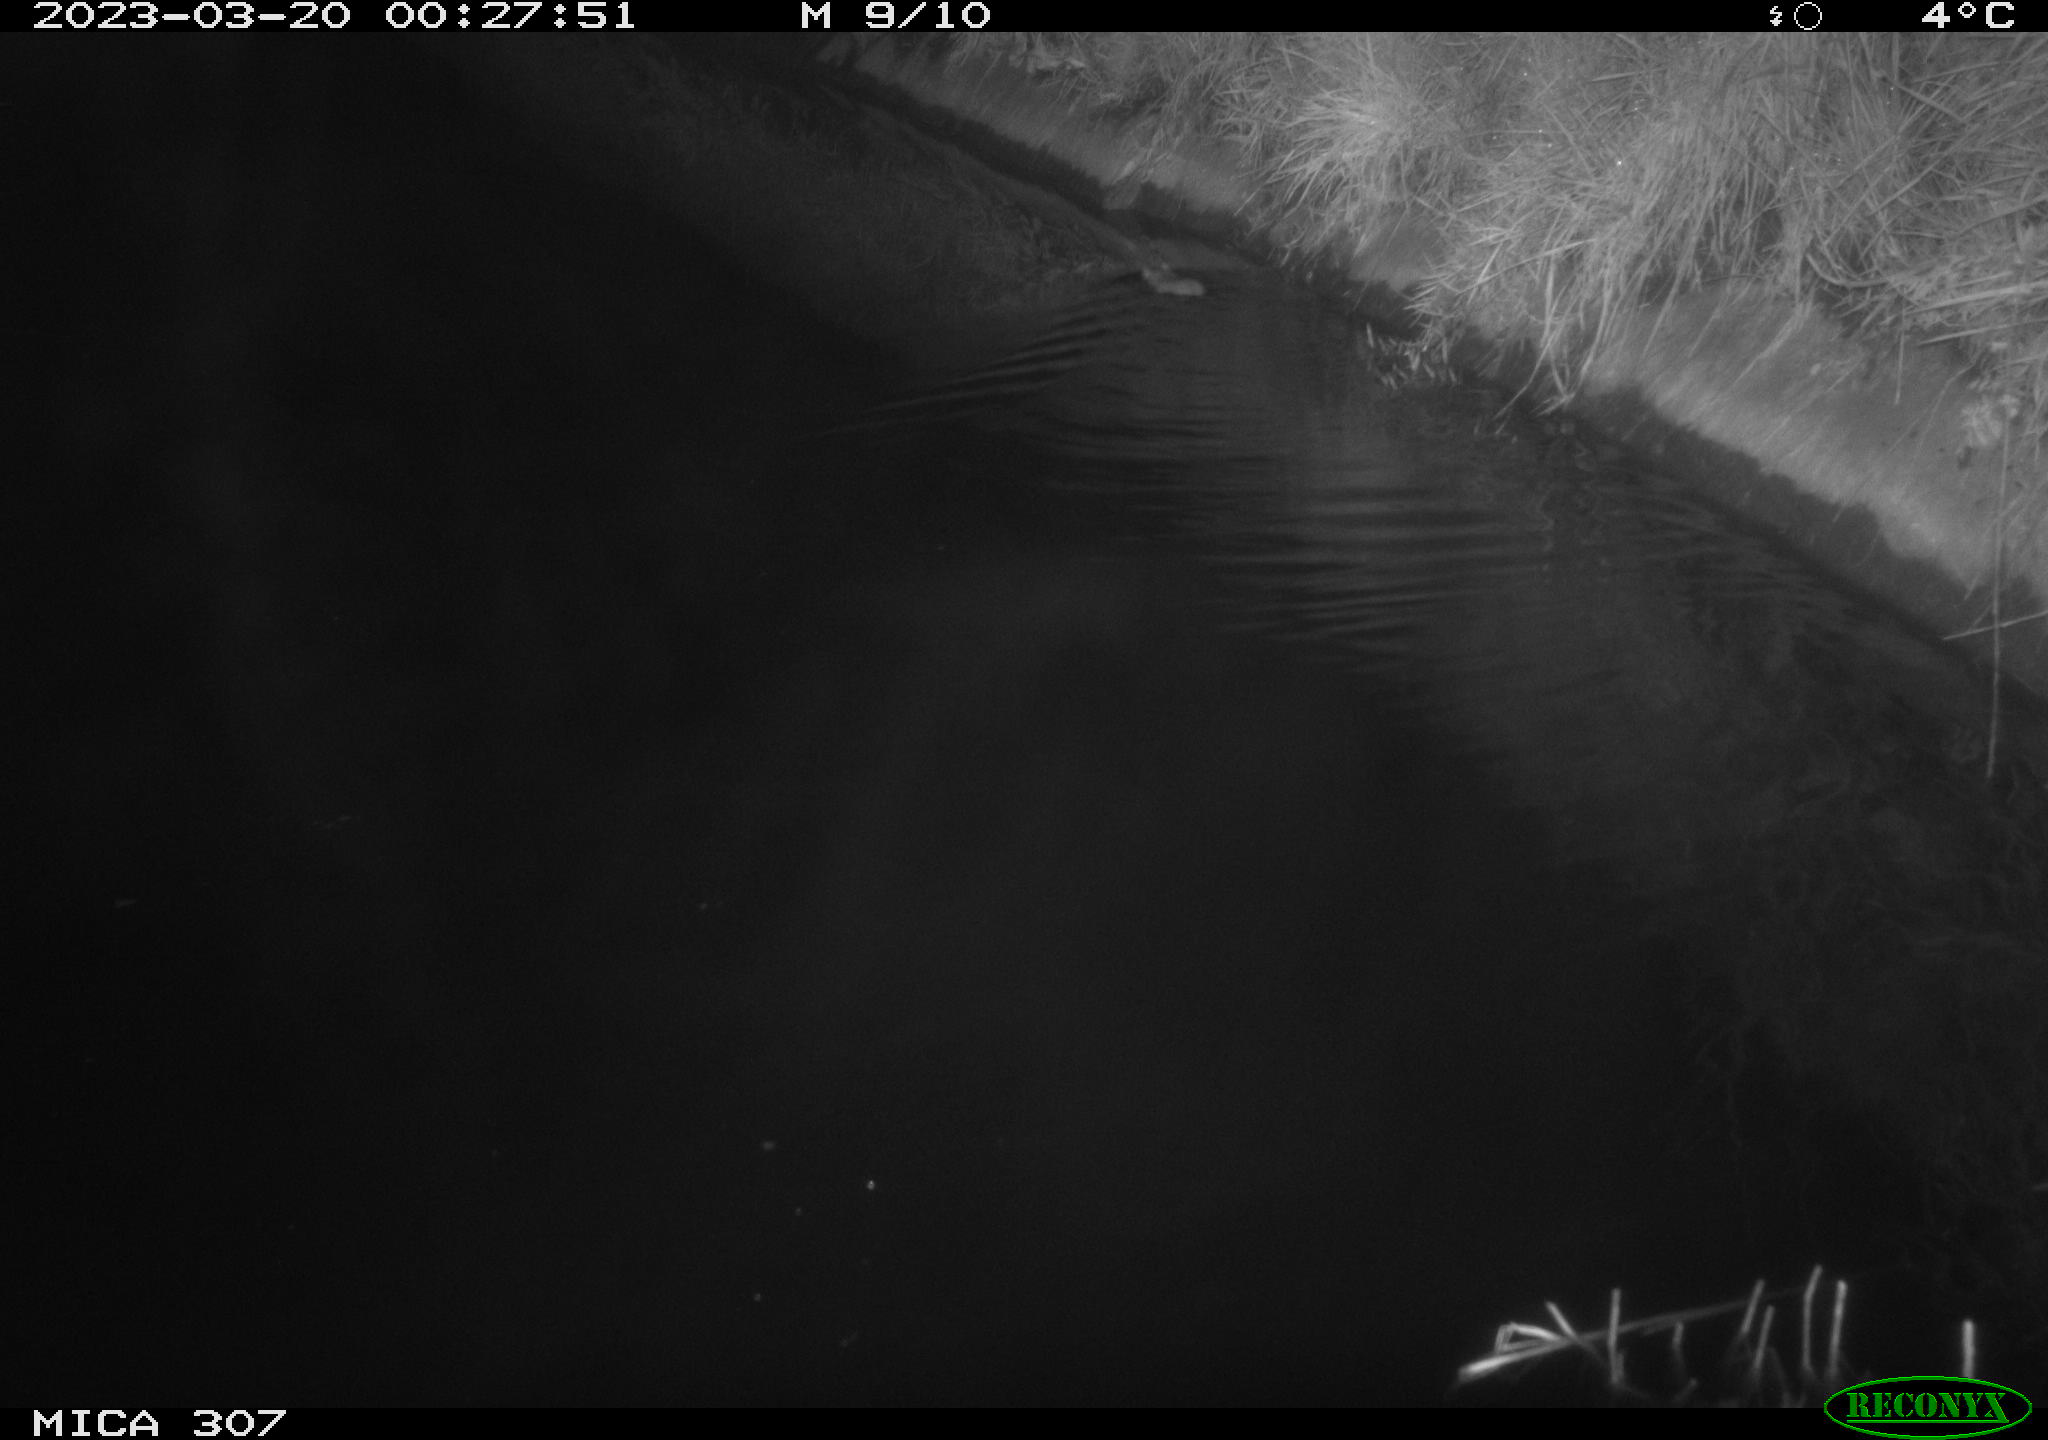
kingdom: Animalia
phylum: Chordata
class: Mammalia
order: Rodentia
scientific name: Rodentia
